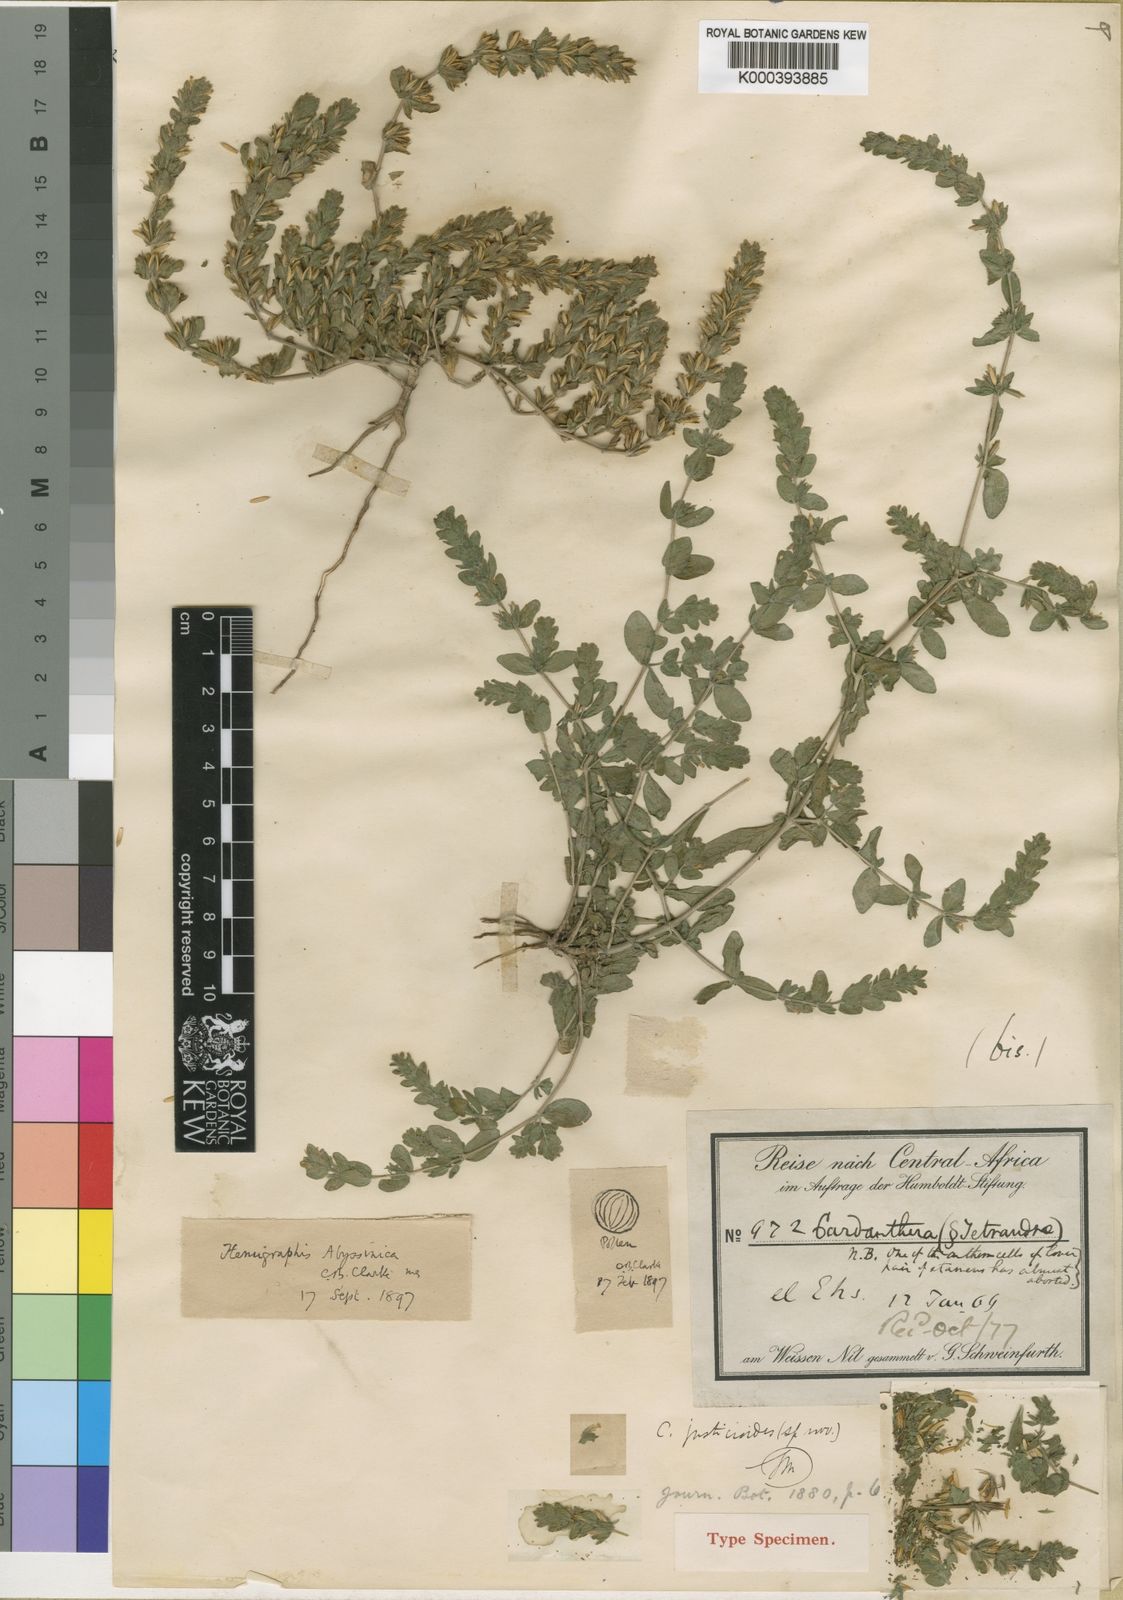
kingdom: Plantae
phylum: Tracheophyta
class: Magnoliopsida
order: Lamiales
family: Acanthaceae
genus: Hygrophila
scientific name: Hygrophila abyssinica
